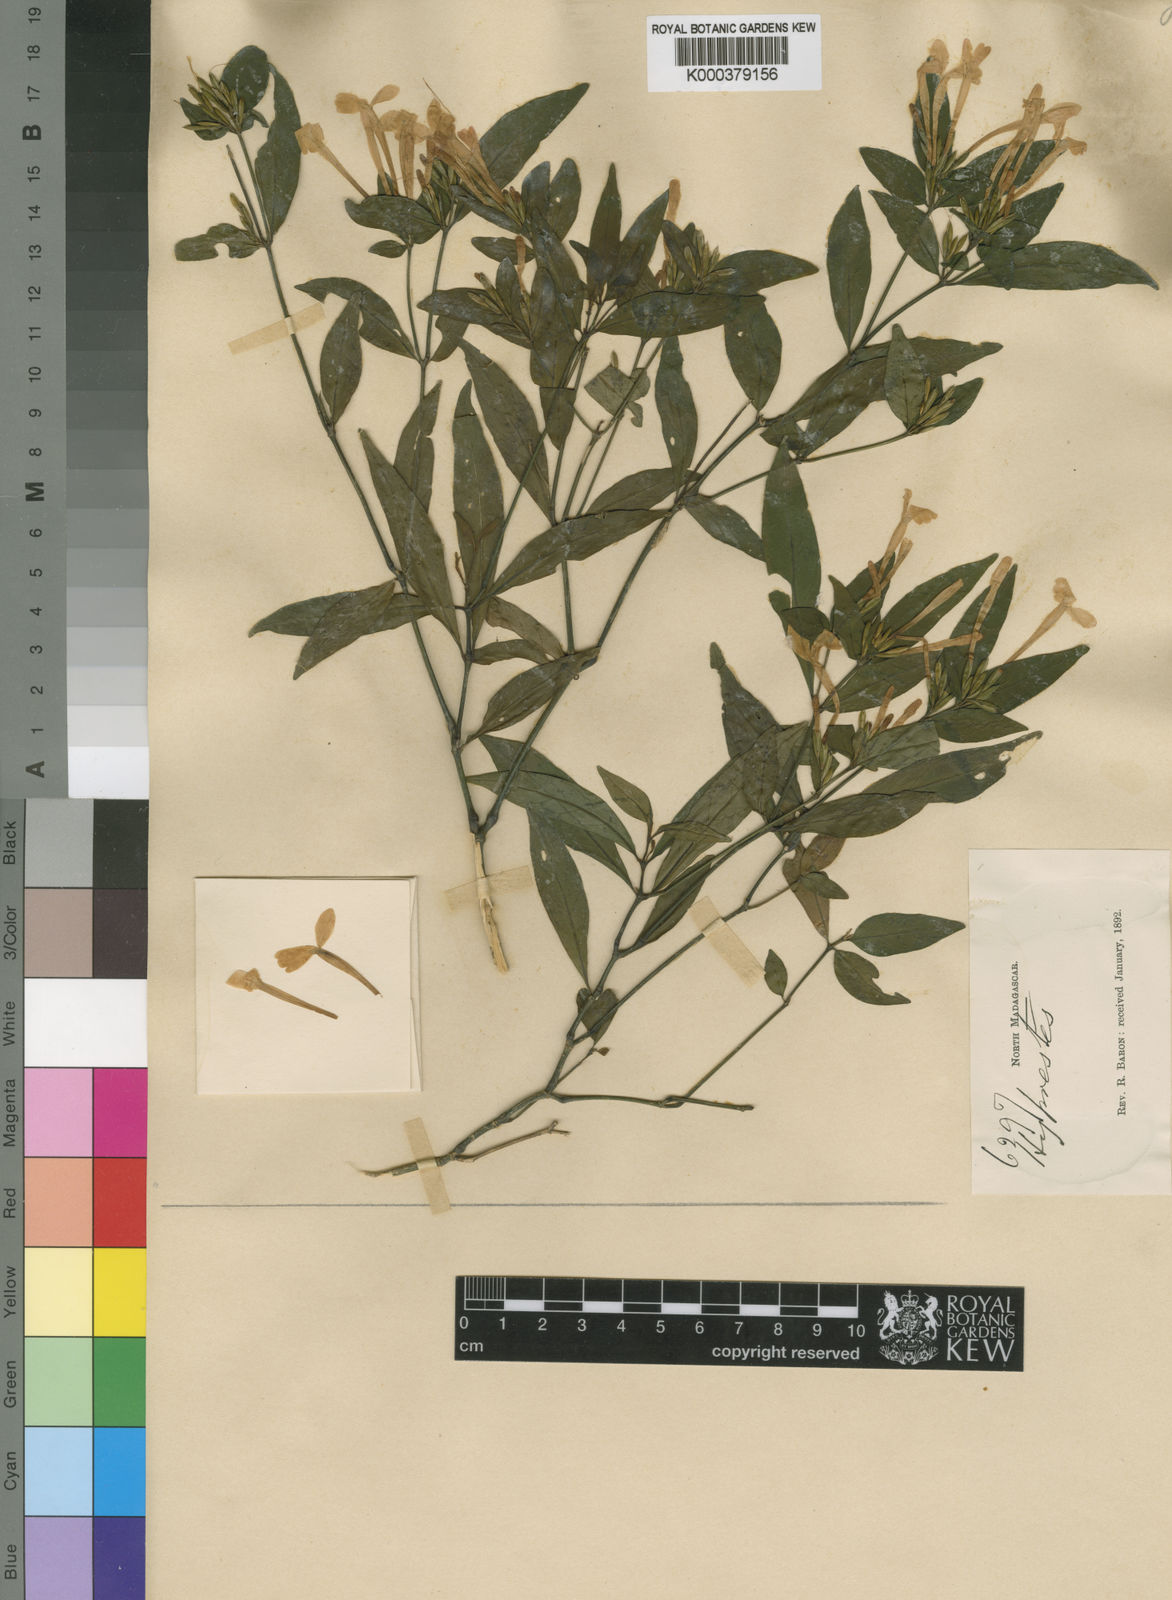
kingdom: Plantae
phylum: Tracheophyta
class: Magnoliopsida
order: Lamiales
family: Acanthaceae
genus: Hypoestes
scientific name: Hypoestes tubiflora
